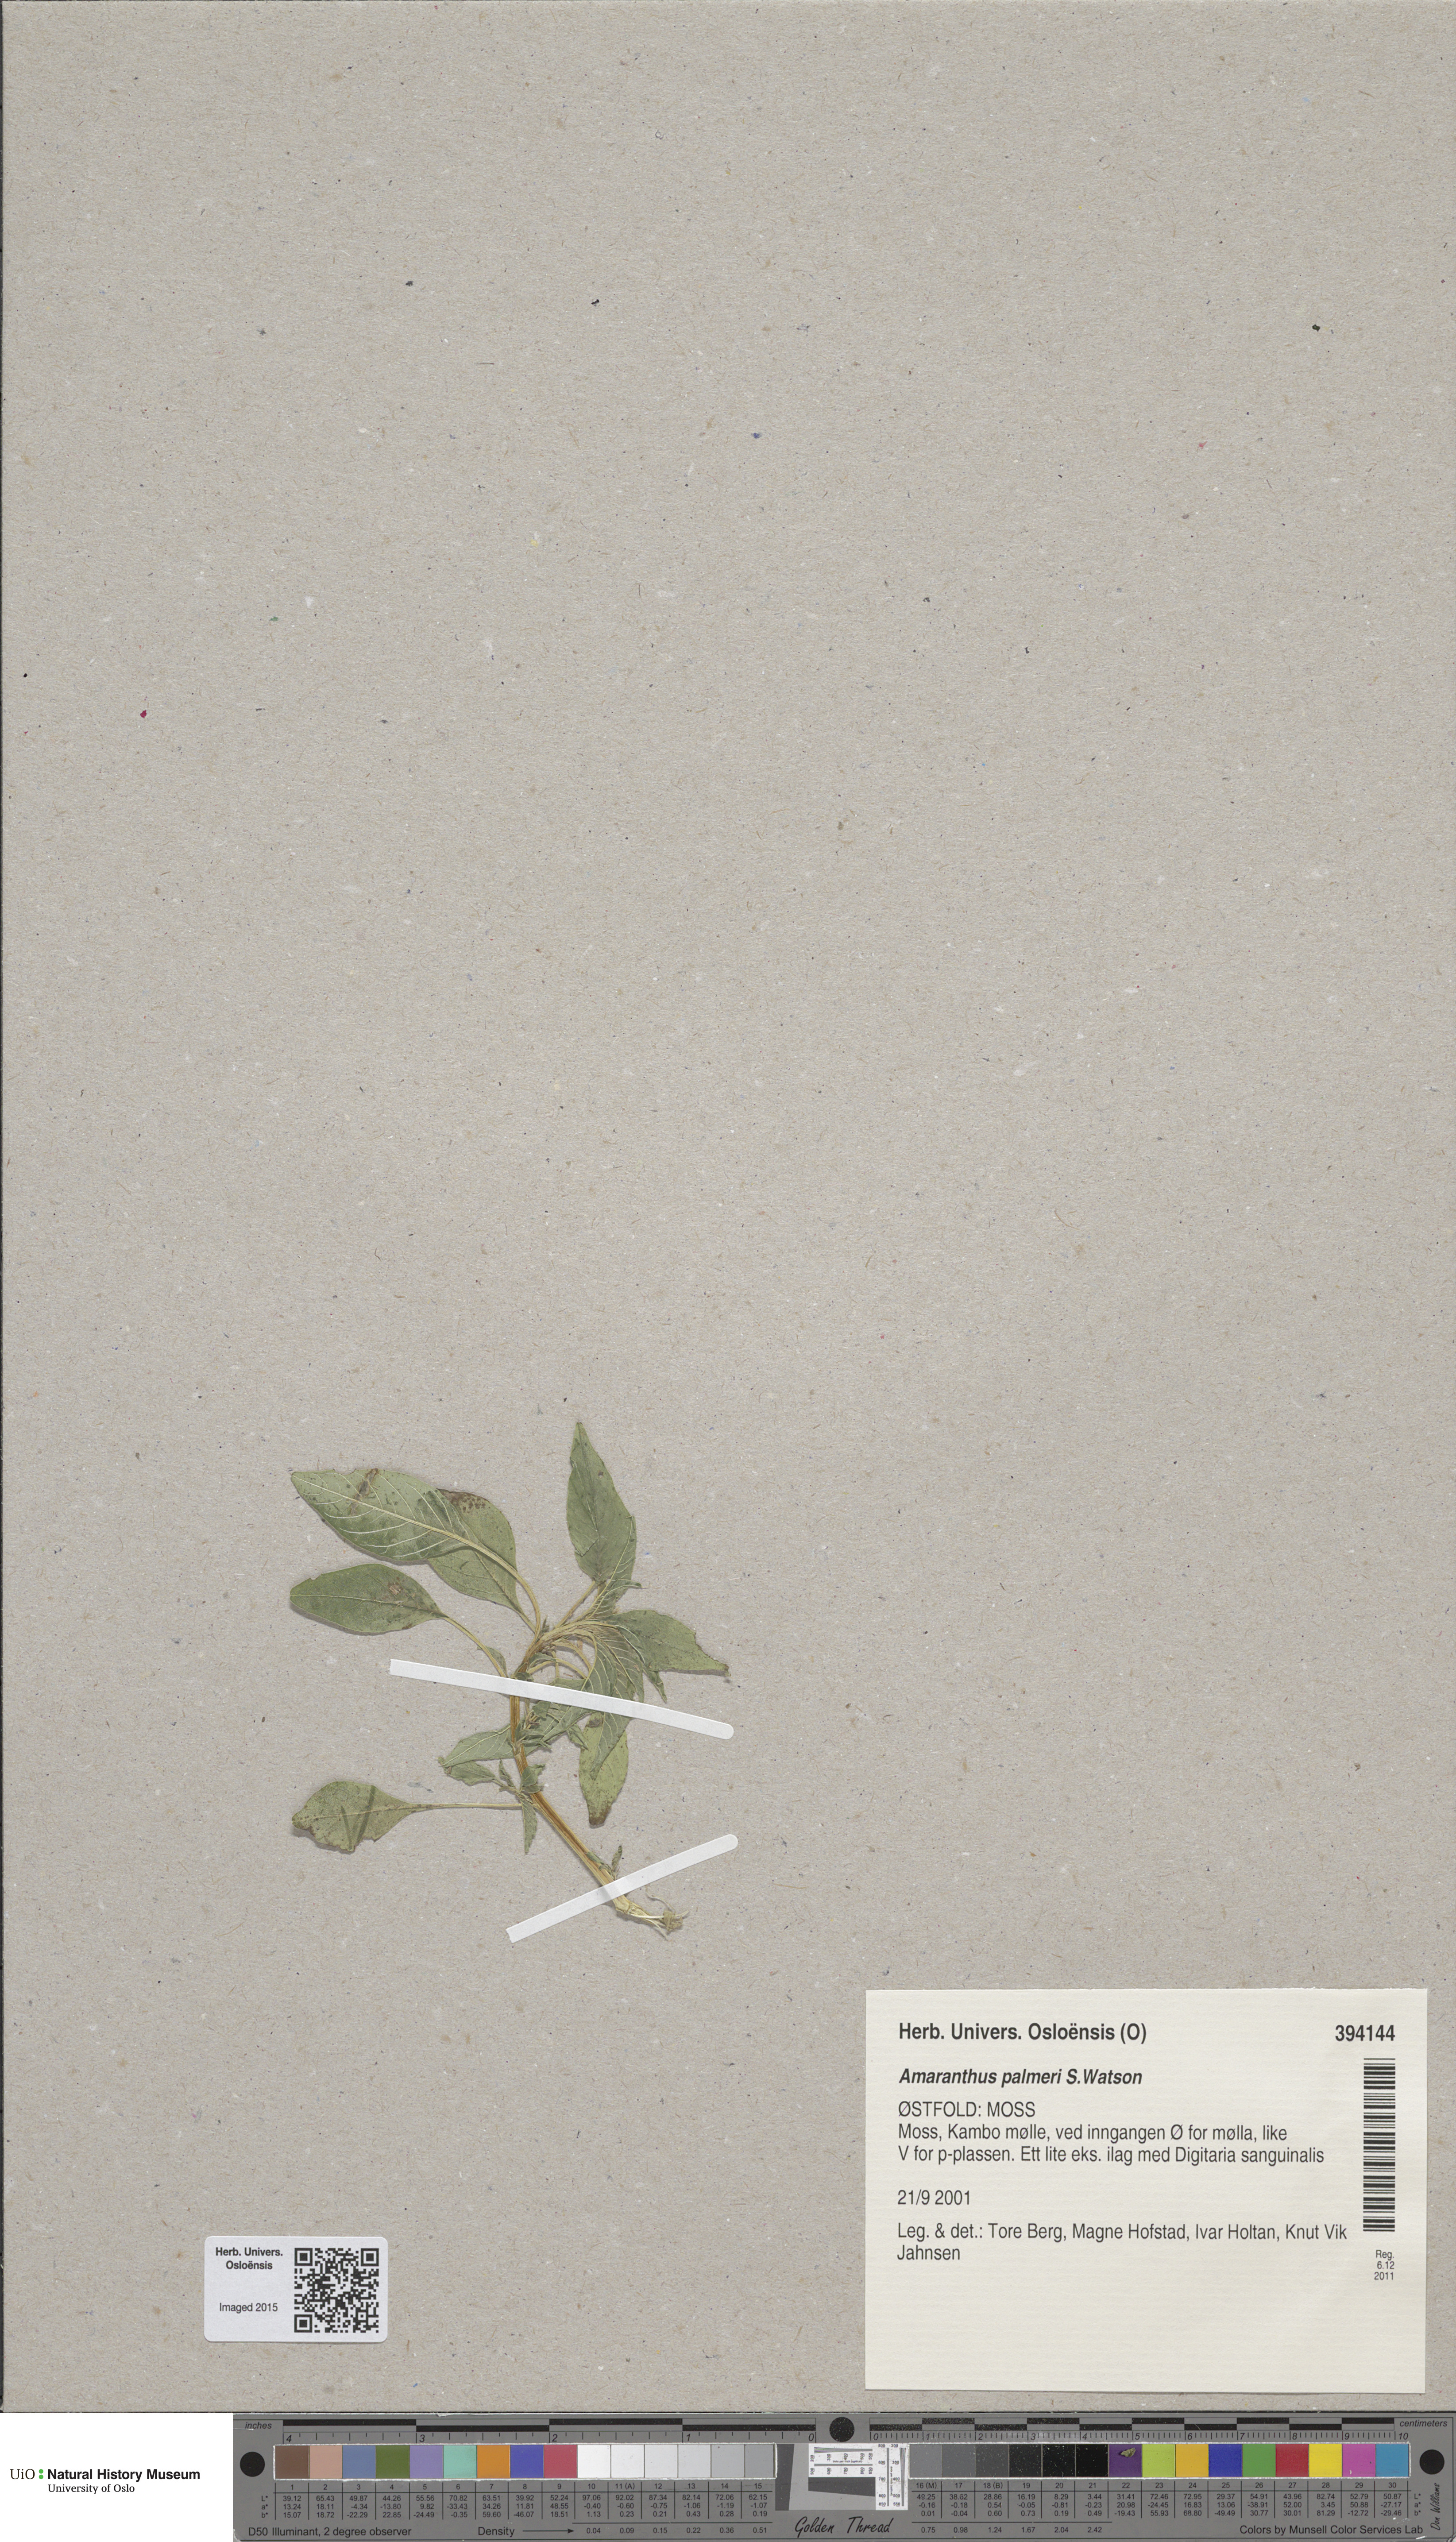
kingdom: Plantae
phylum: Tracheophyta
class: Magnoliopsida
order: Caryophyllales
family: Amaranthaceae
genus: Amaranthus
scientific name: Amaranthus palmeri
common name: Dioecious amaranth
